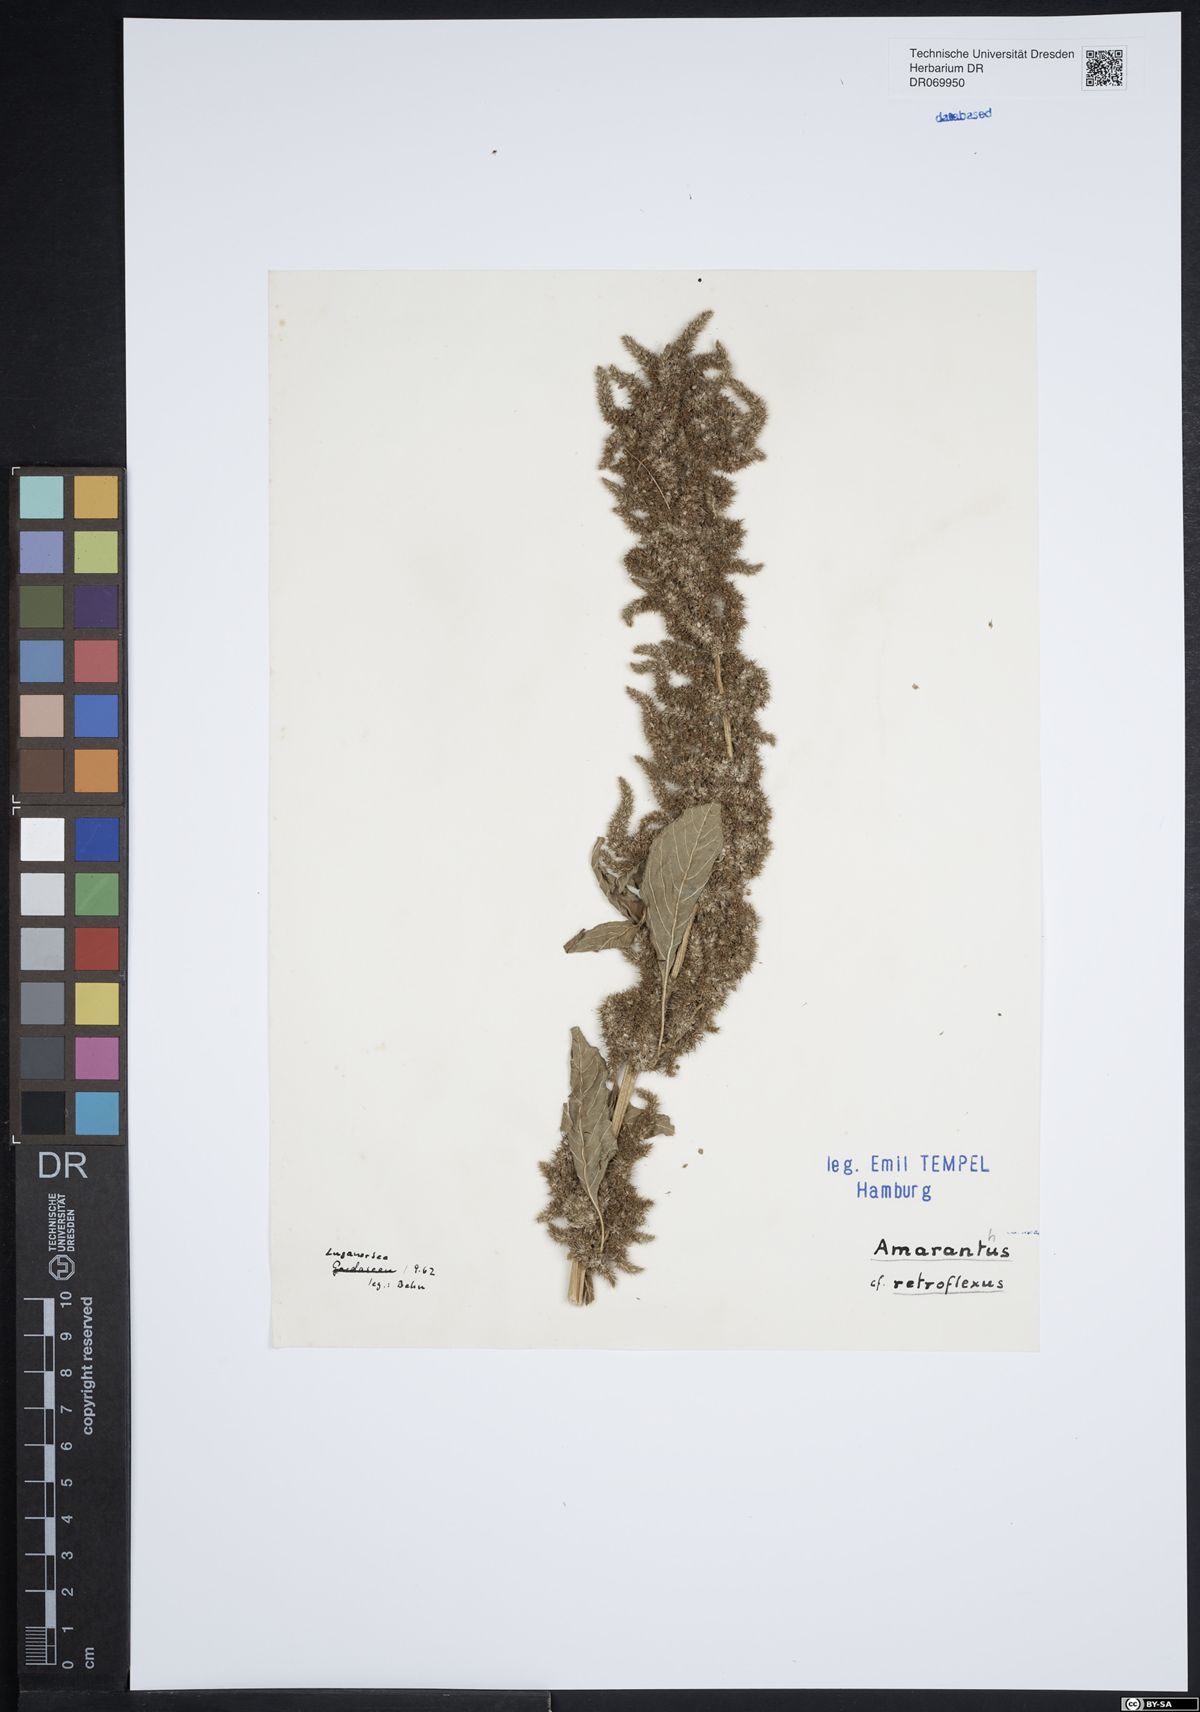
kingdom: Plantae
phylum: Tracheophyta
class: Magnoliopsida
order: Caryophyllales
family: Amaranthaceae
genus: Amaranthus
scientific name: Amaranthus retroflexus
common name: Redroot amaranth
